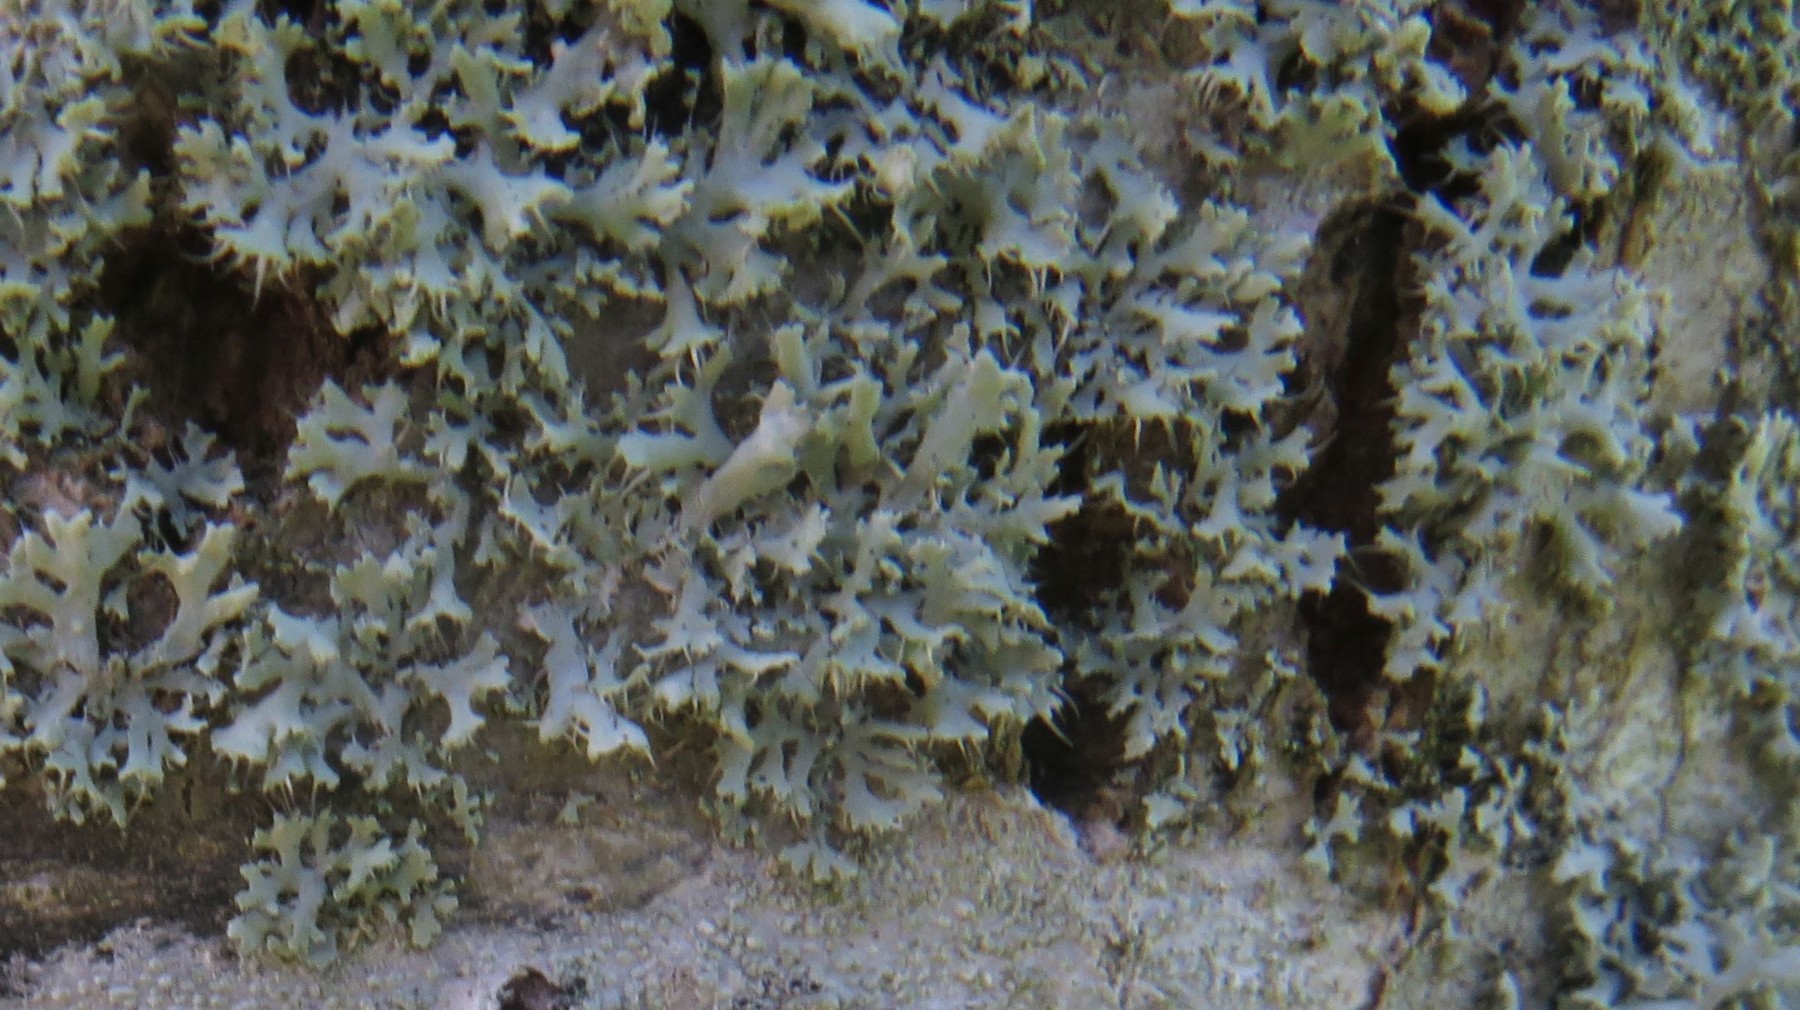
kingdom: Fungi
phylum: Ascomycota
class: Lecanoromycetes
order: Caliciales
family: Physciaceae
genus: Physcia
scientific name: Physcia tenella
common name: spæd rosetlav
